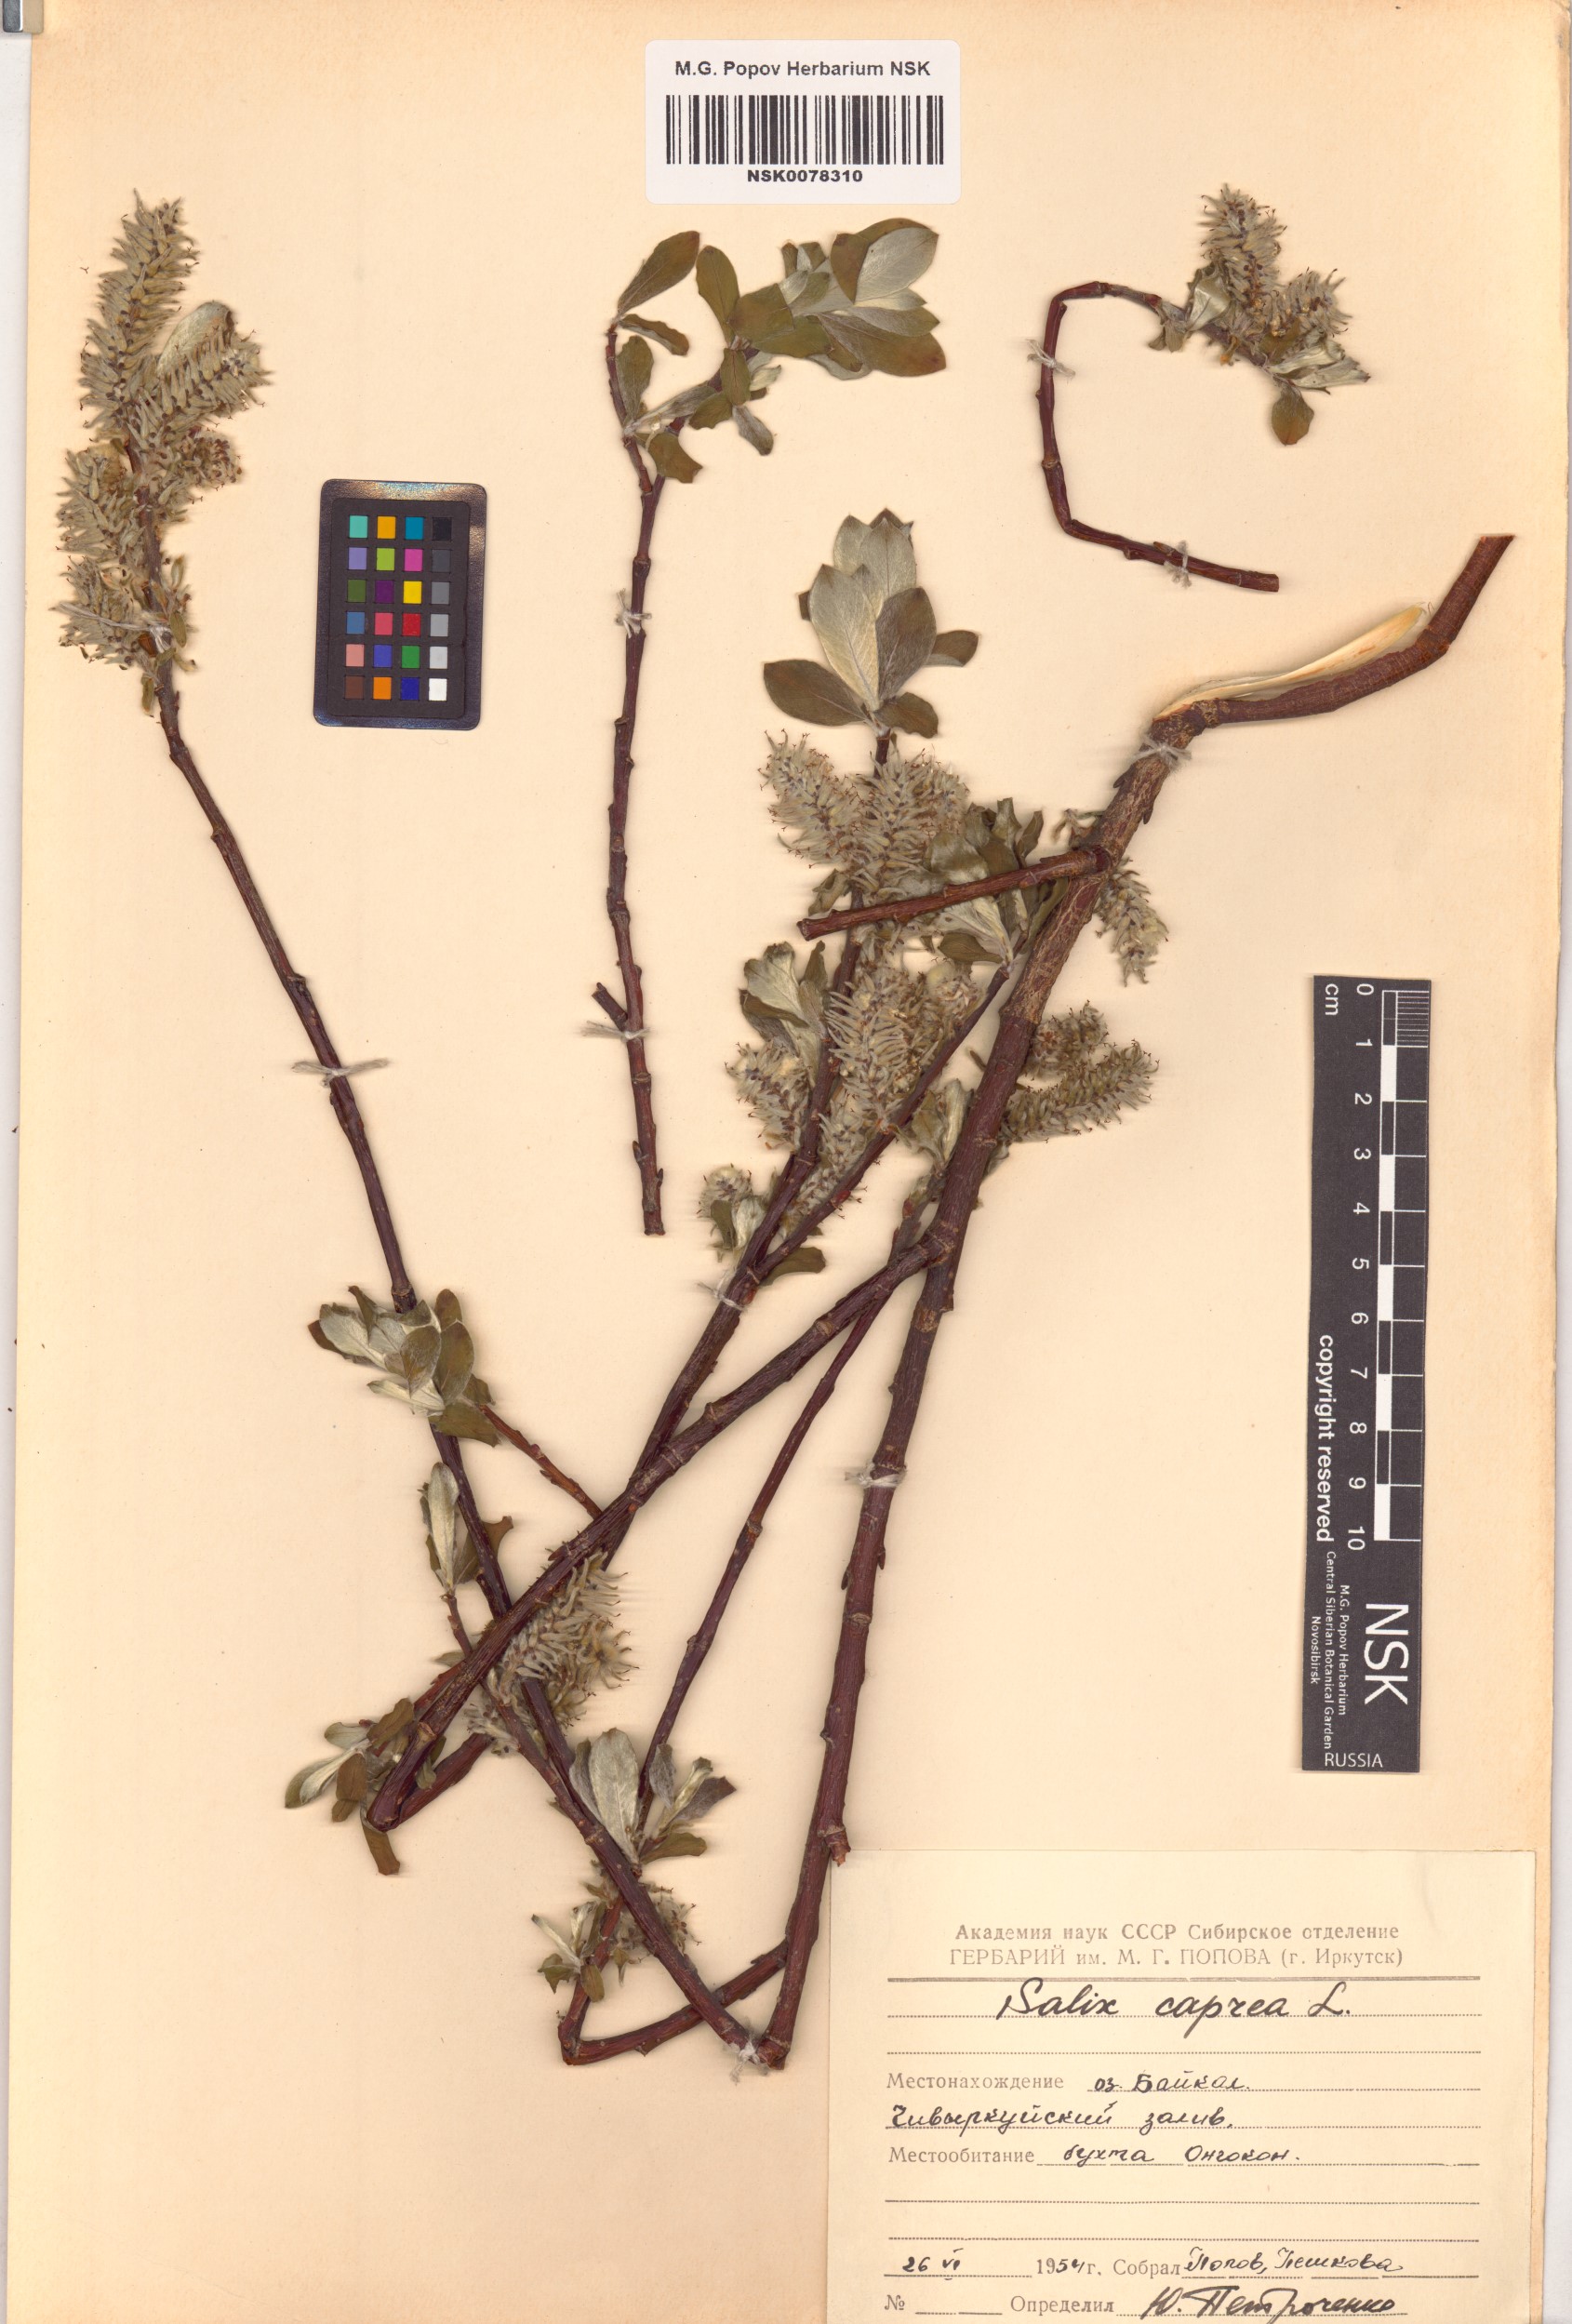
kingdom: Plantae
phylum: Tracheophyta
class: Magnoliopsida
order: Malpighiales
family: Salicaceae
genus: Salix
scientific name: Salix caprea
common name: Goat willow
